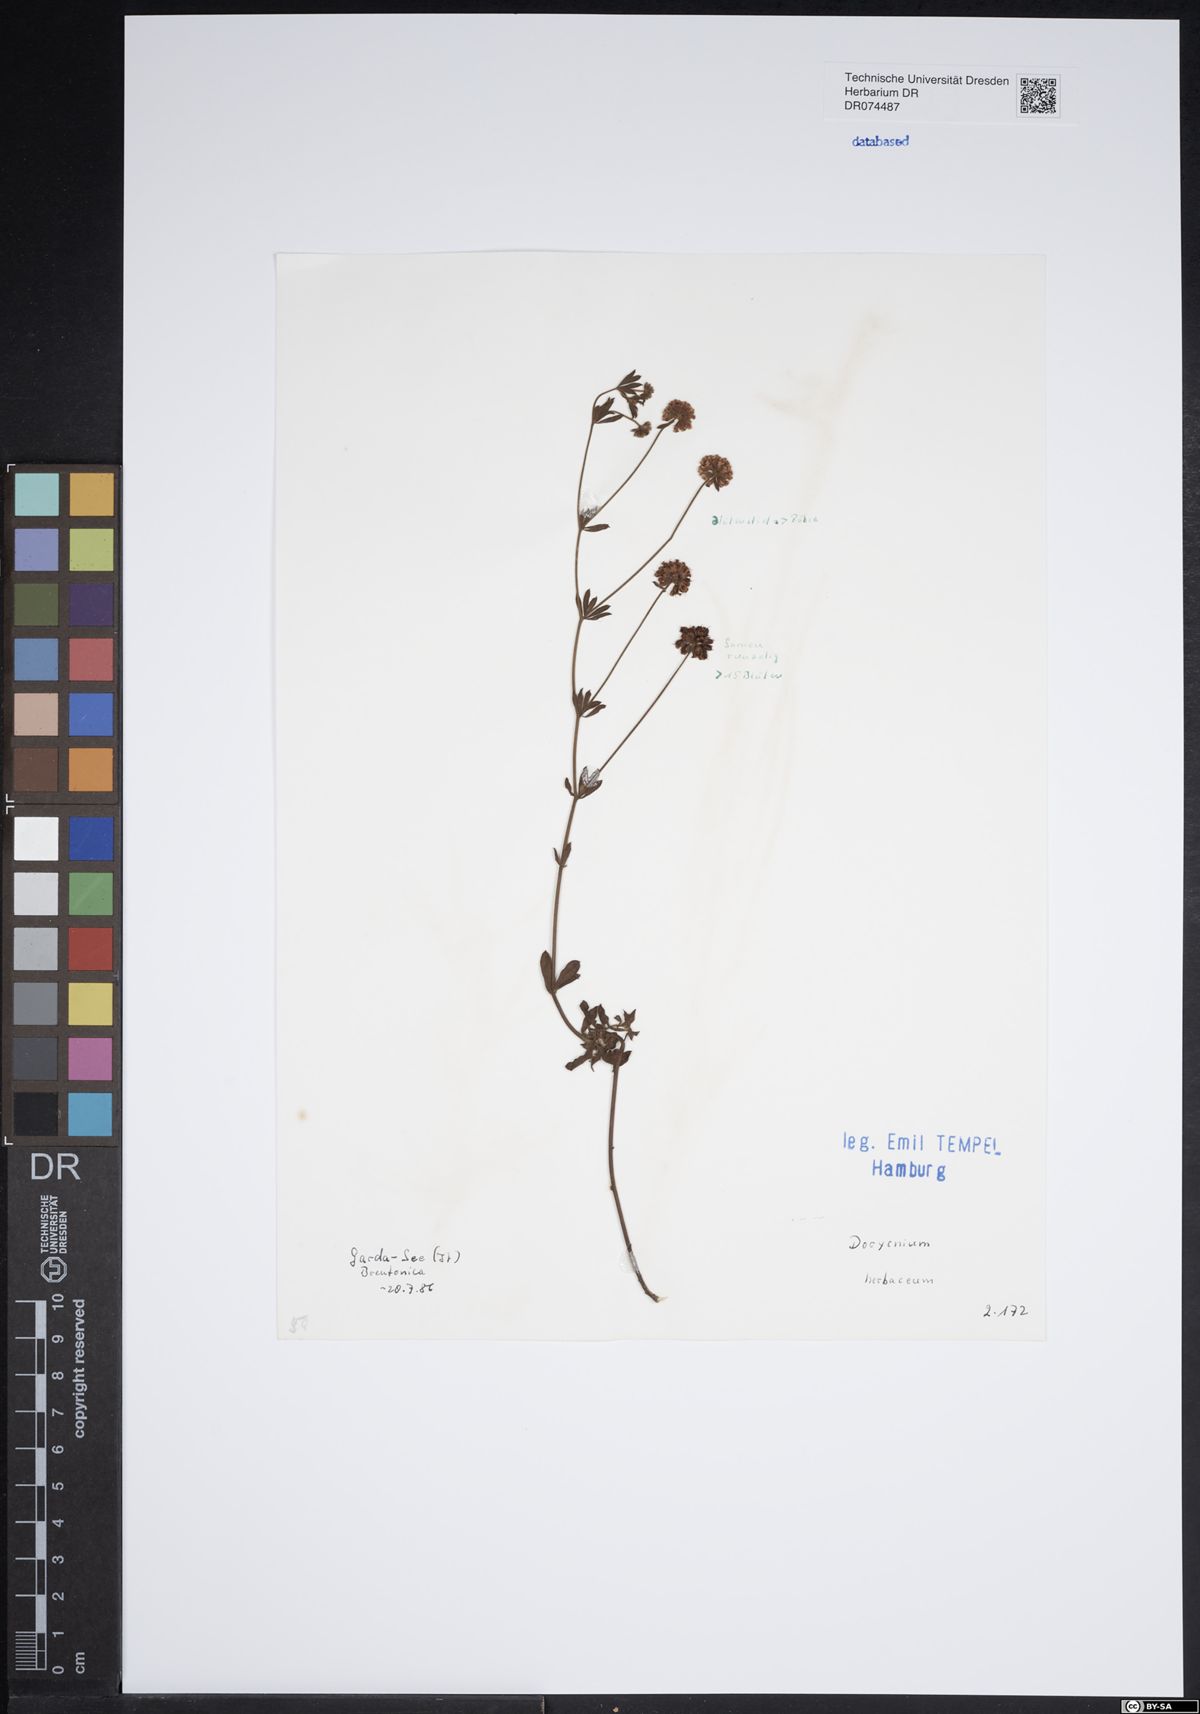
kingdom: Plantae
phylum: Tracheophyta
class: Magnoliopsida
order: Fabales
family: Fabaceae
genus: Lotus
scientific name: Lotus herbaceus
